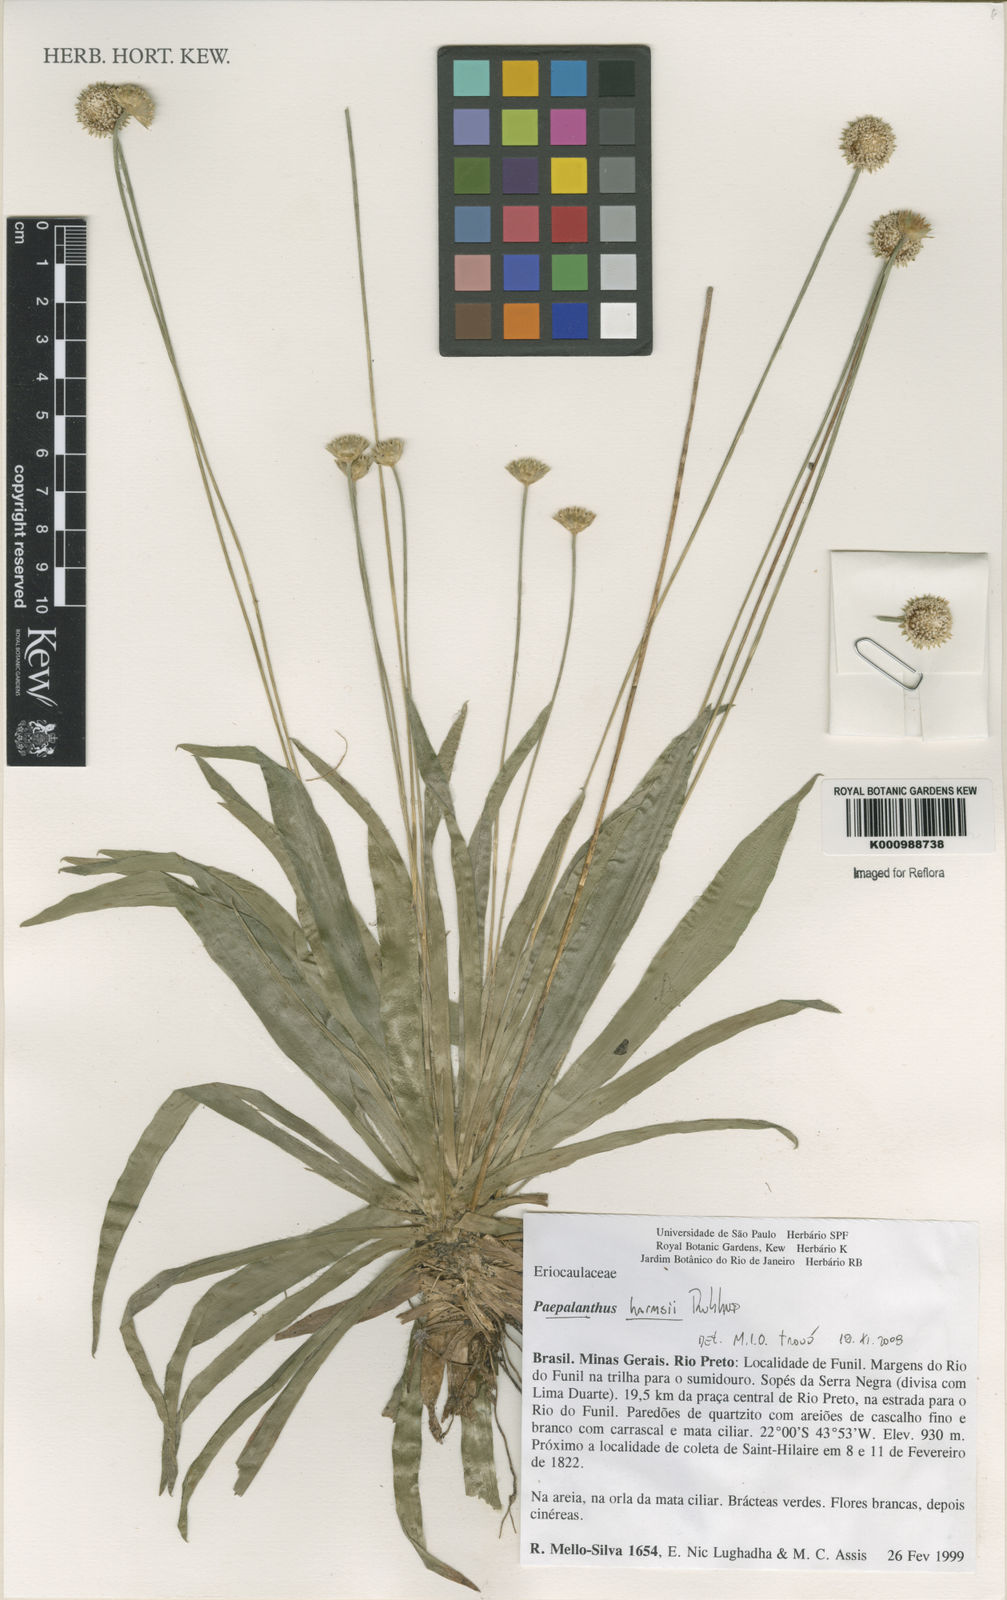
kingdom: Plantae
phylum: Tracheophyta
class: Liliopsida
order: Poales
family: Eriocaulaceae
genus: Paepalanthus
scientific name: Paepalanthus harmsii
